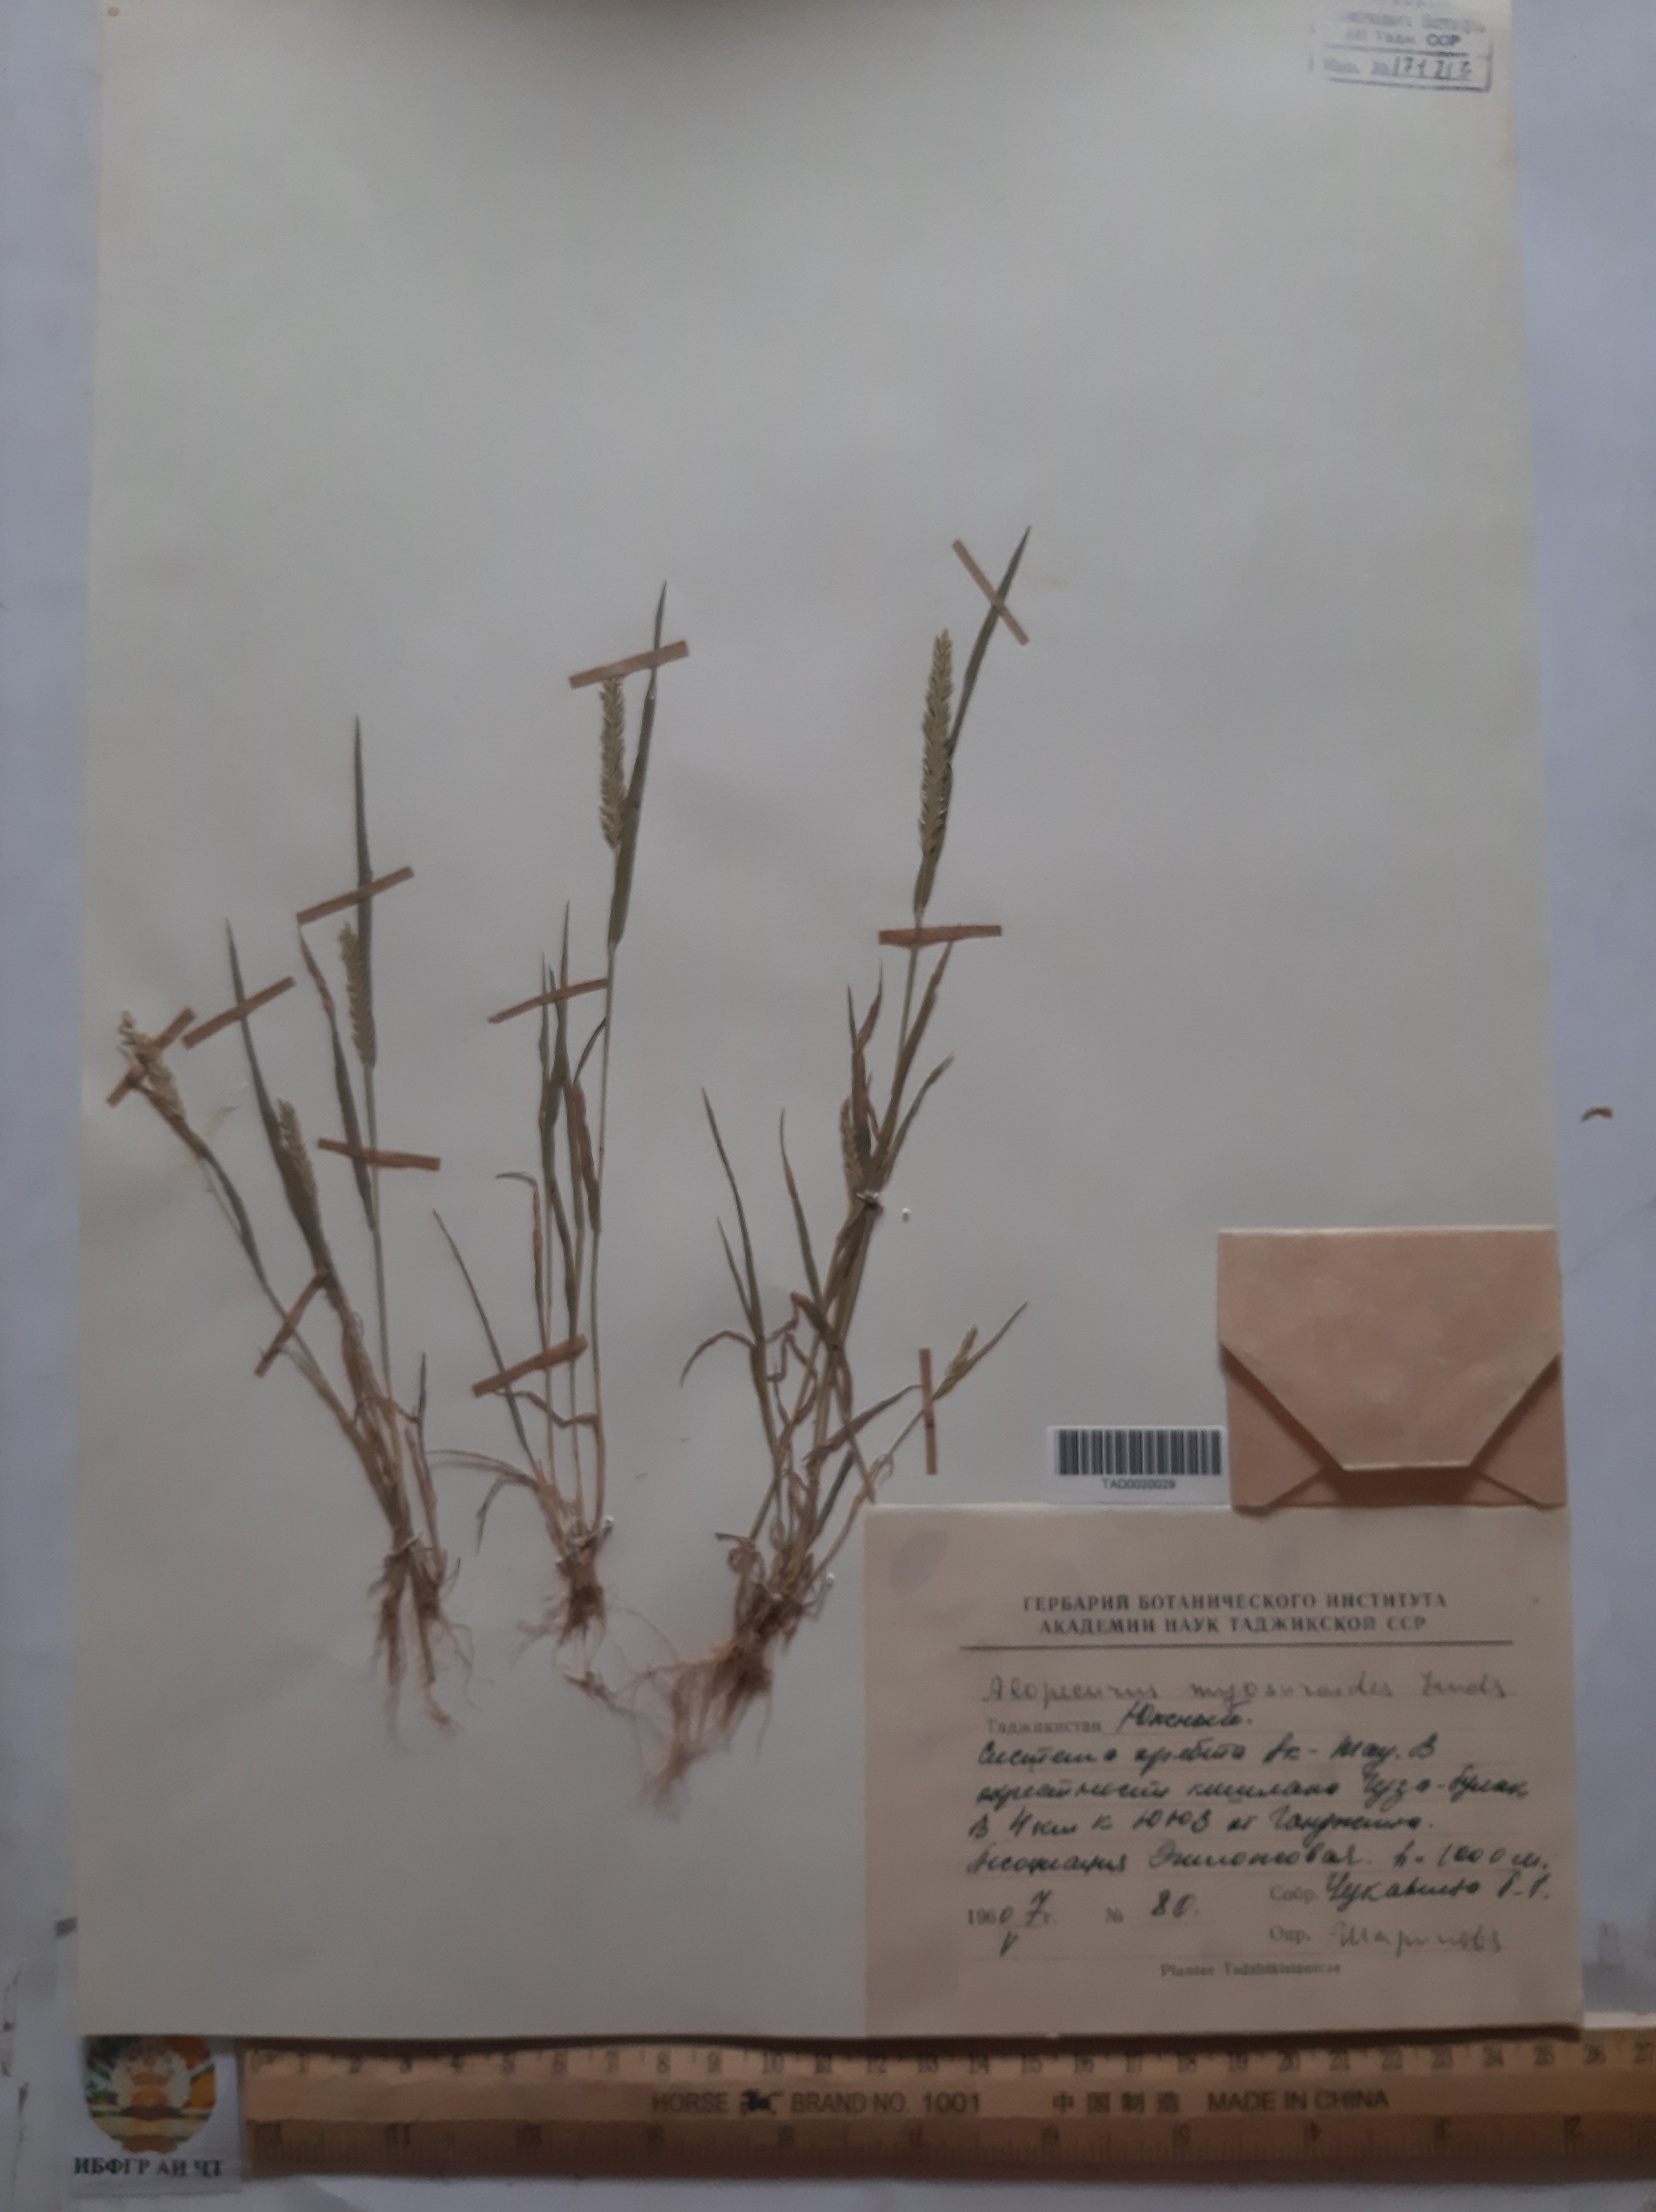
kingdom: Plantae
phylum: Tracheophyta
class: Liliopsida
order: Poales
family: Poaceae
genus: Alopecurus
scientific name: Alopecurus mucronatus
